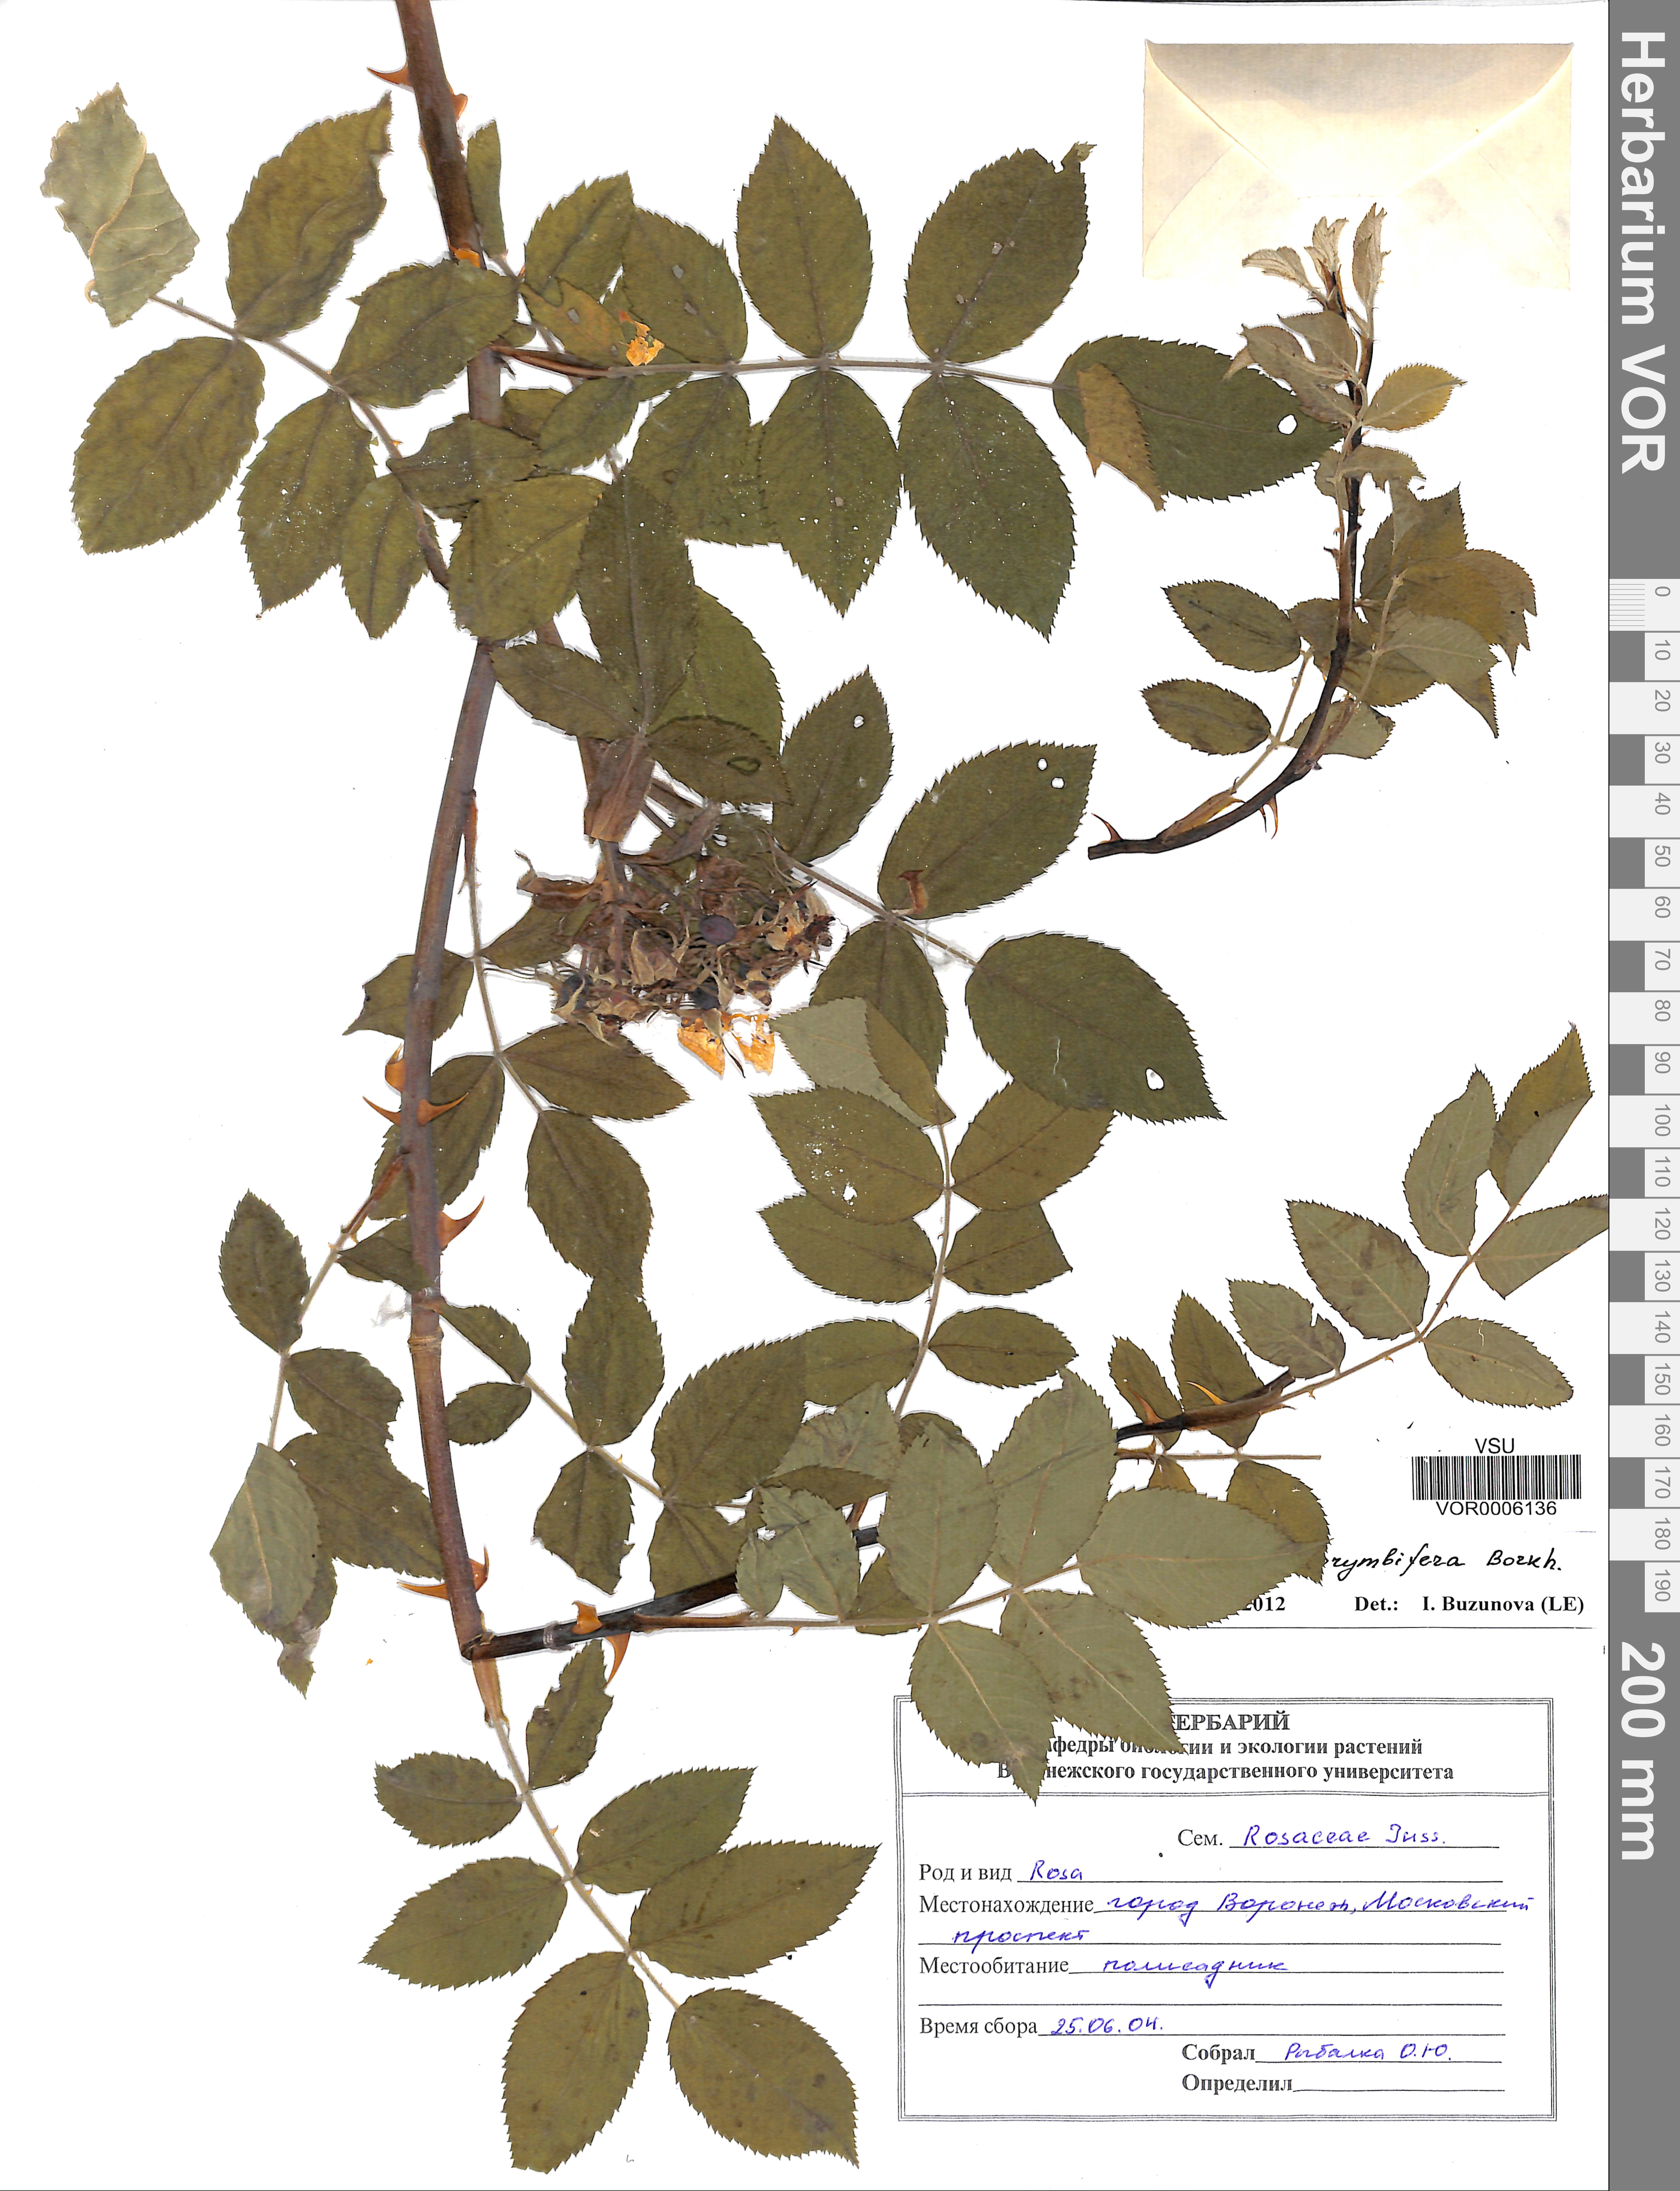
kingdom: Plantae
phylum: Tracheophyta
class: Magnoliopsida
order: Rosales
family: Rosaceae
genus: Rosa
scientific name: Rosa corymbifera
